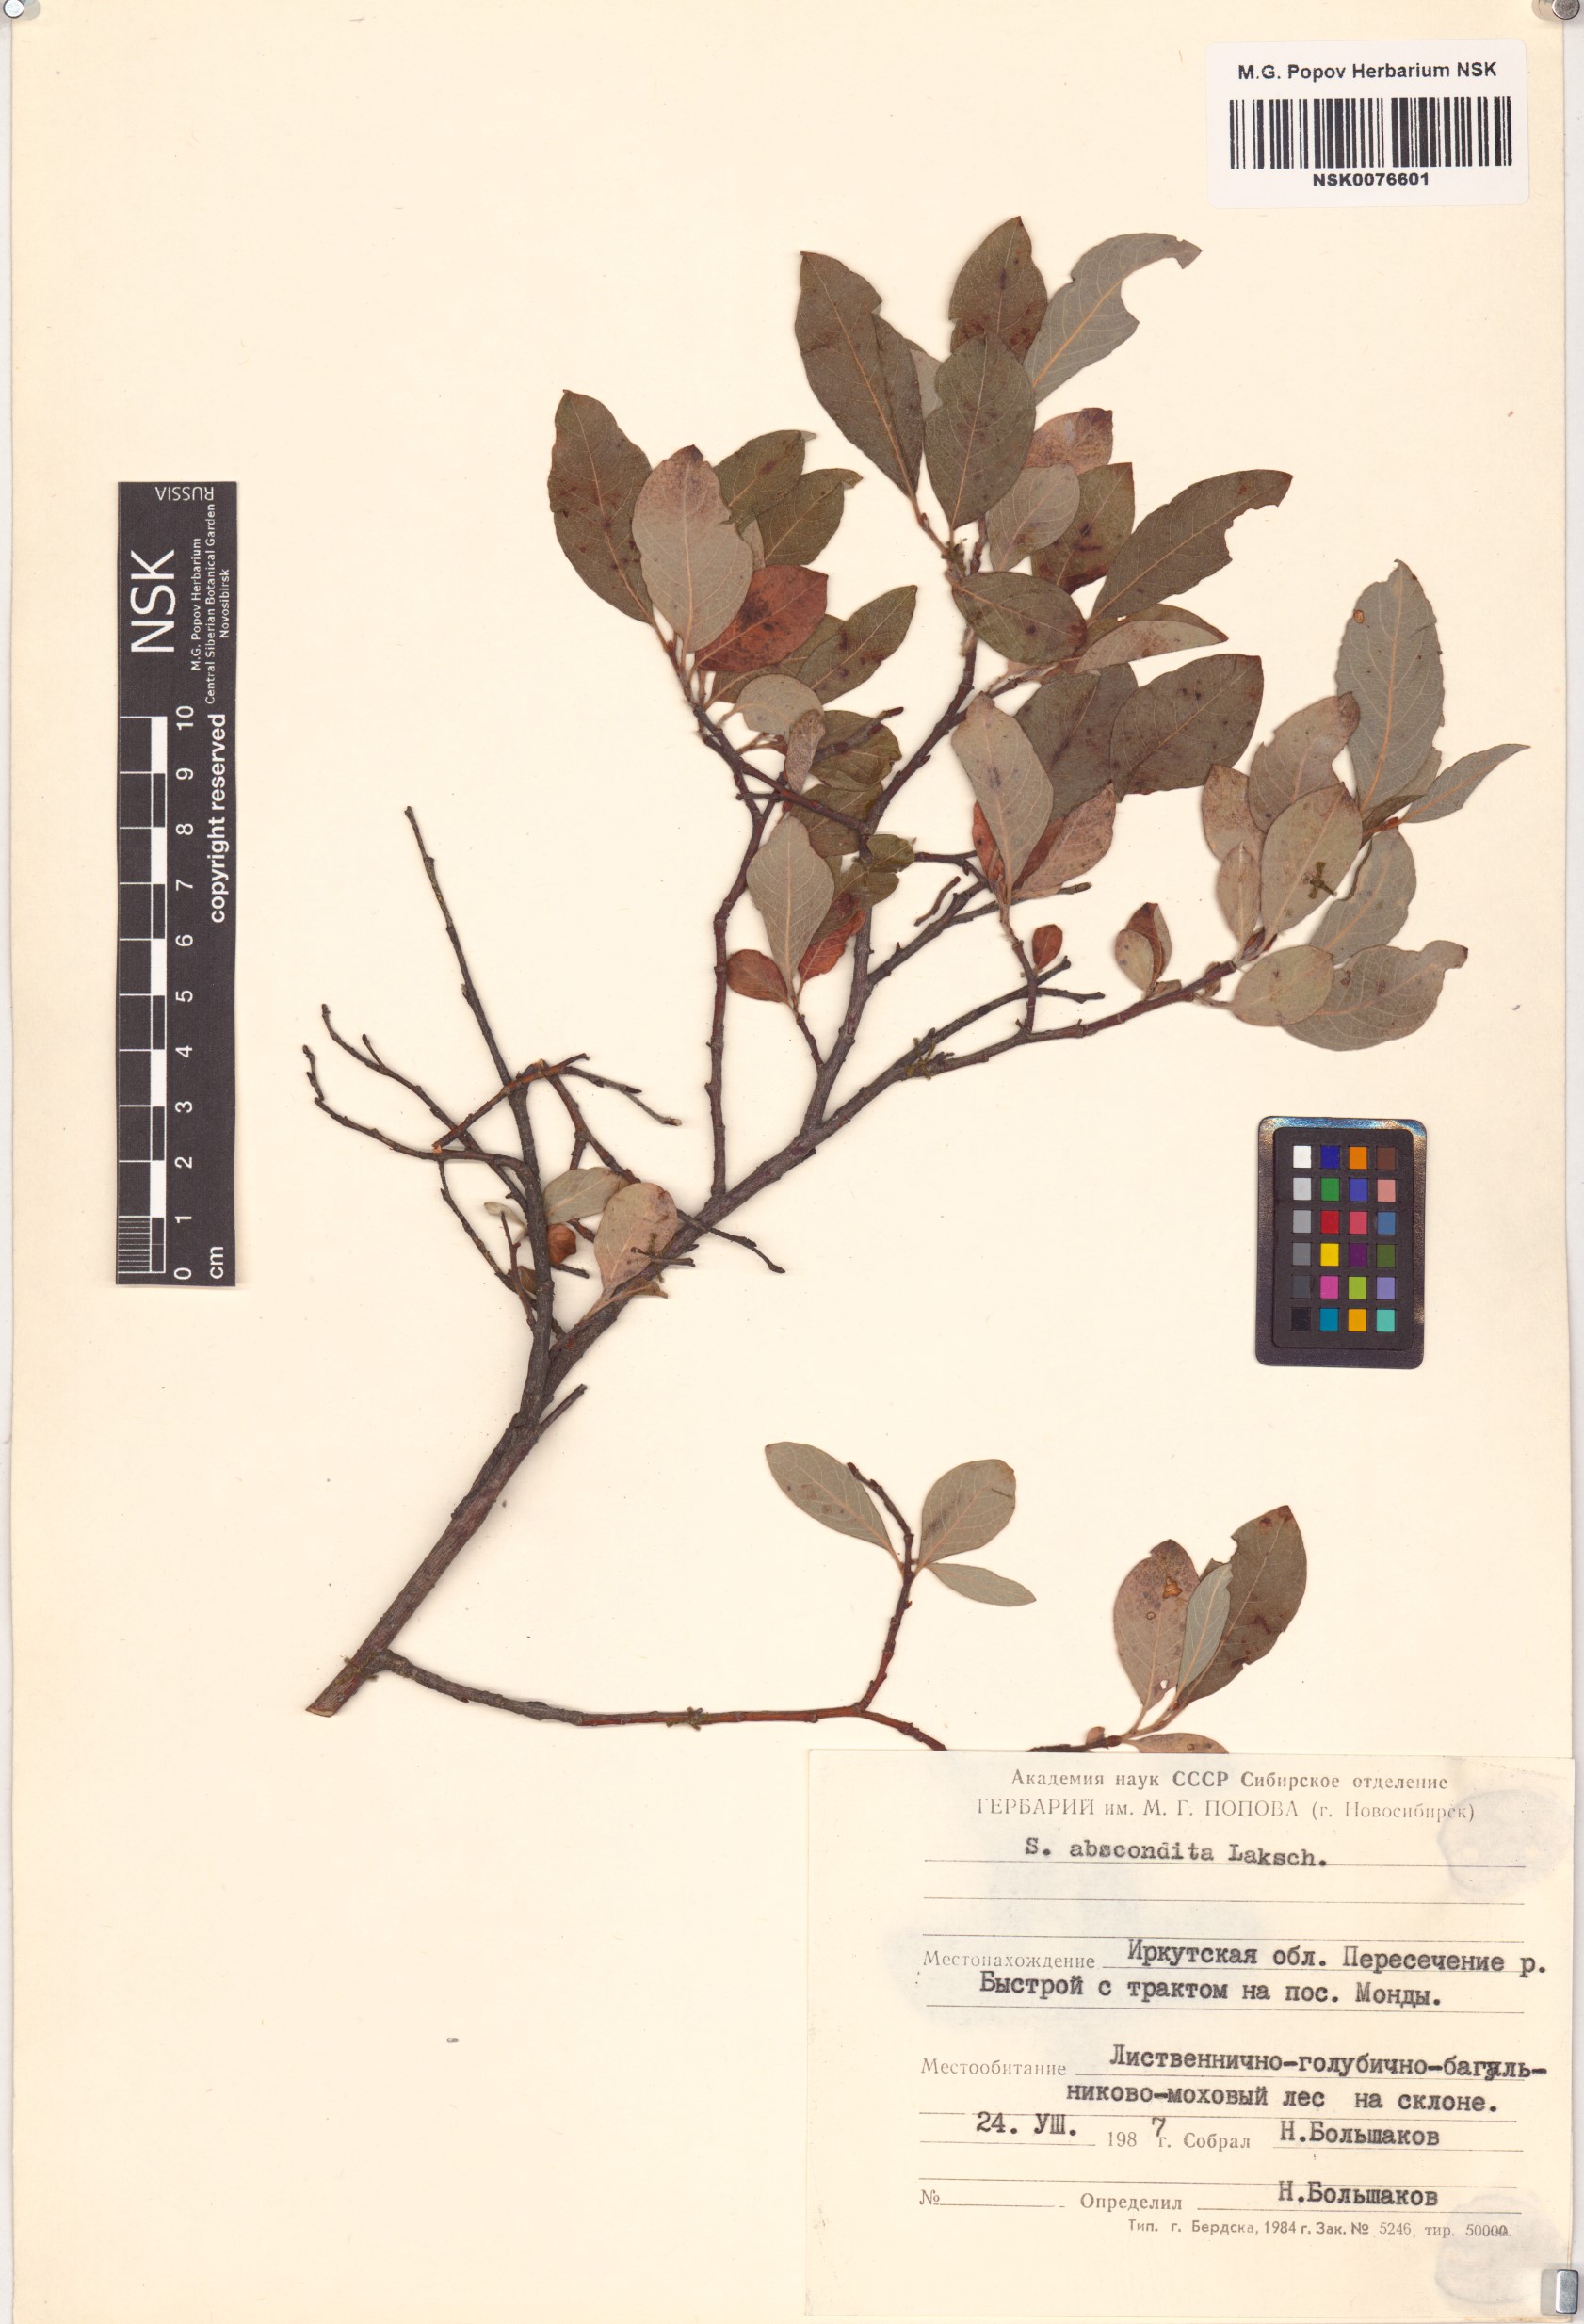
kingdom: Plantae
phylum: Tracheophyta
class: Magnoliopsida
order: Malpighiales
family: Salicaceae
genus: Salix
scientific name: Salix abscondita
